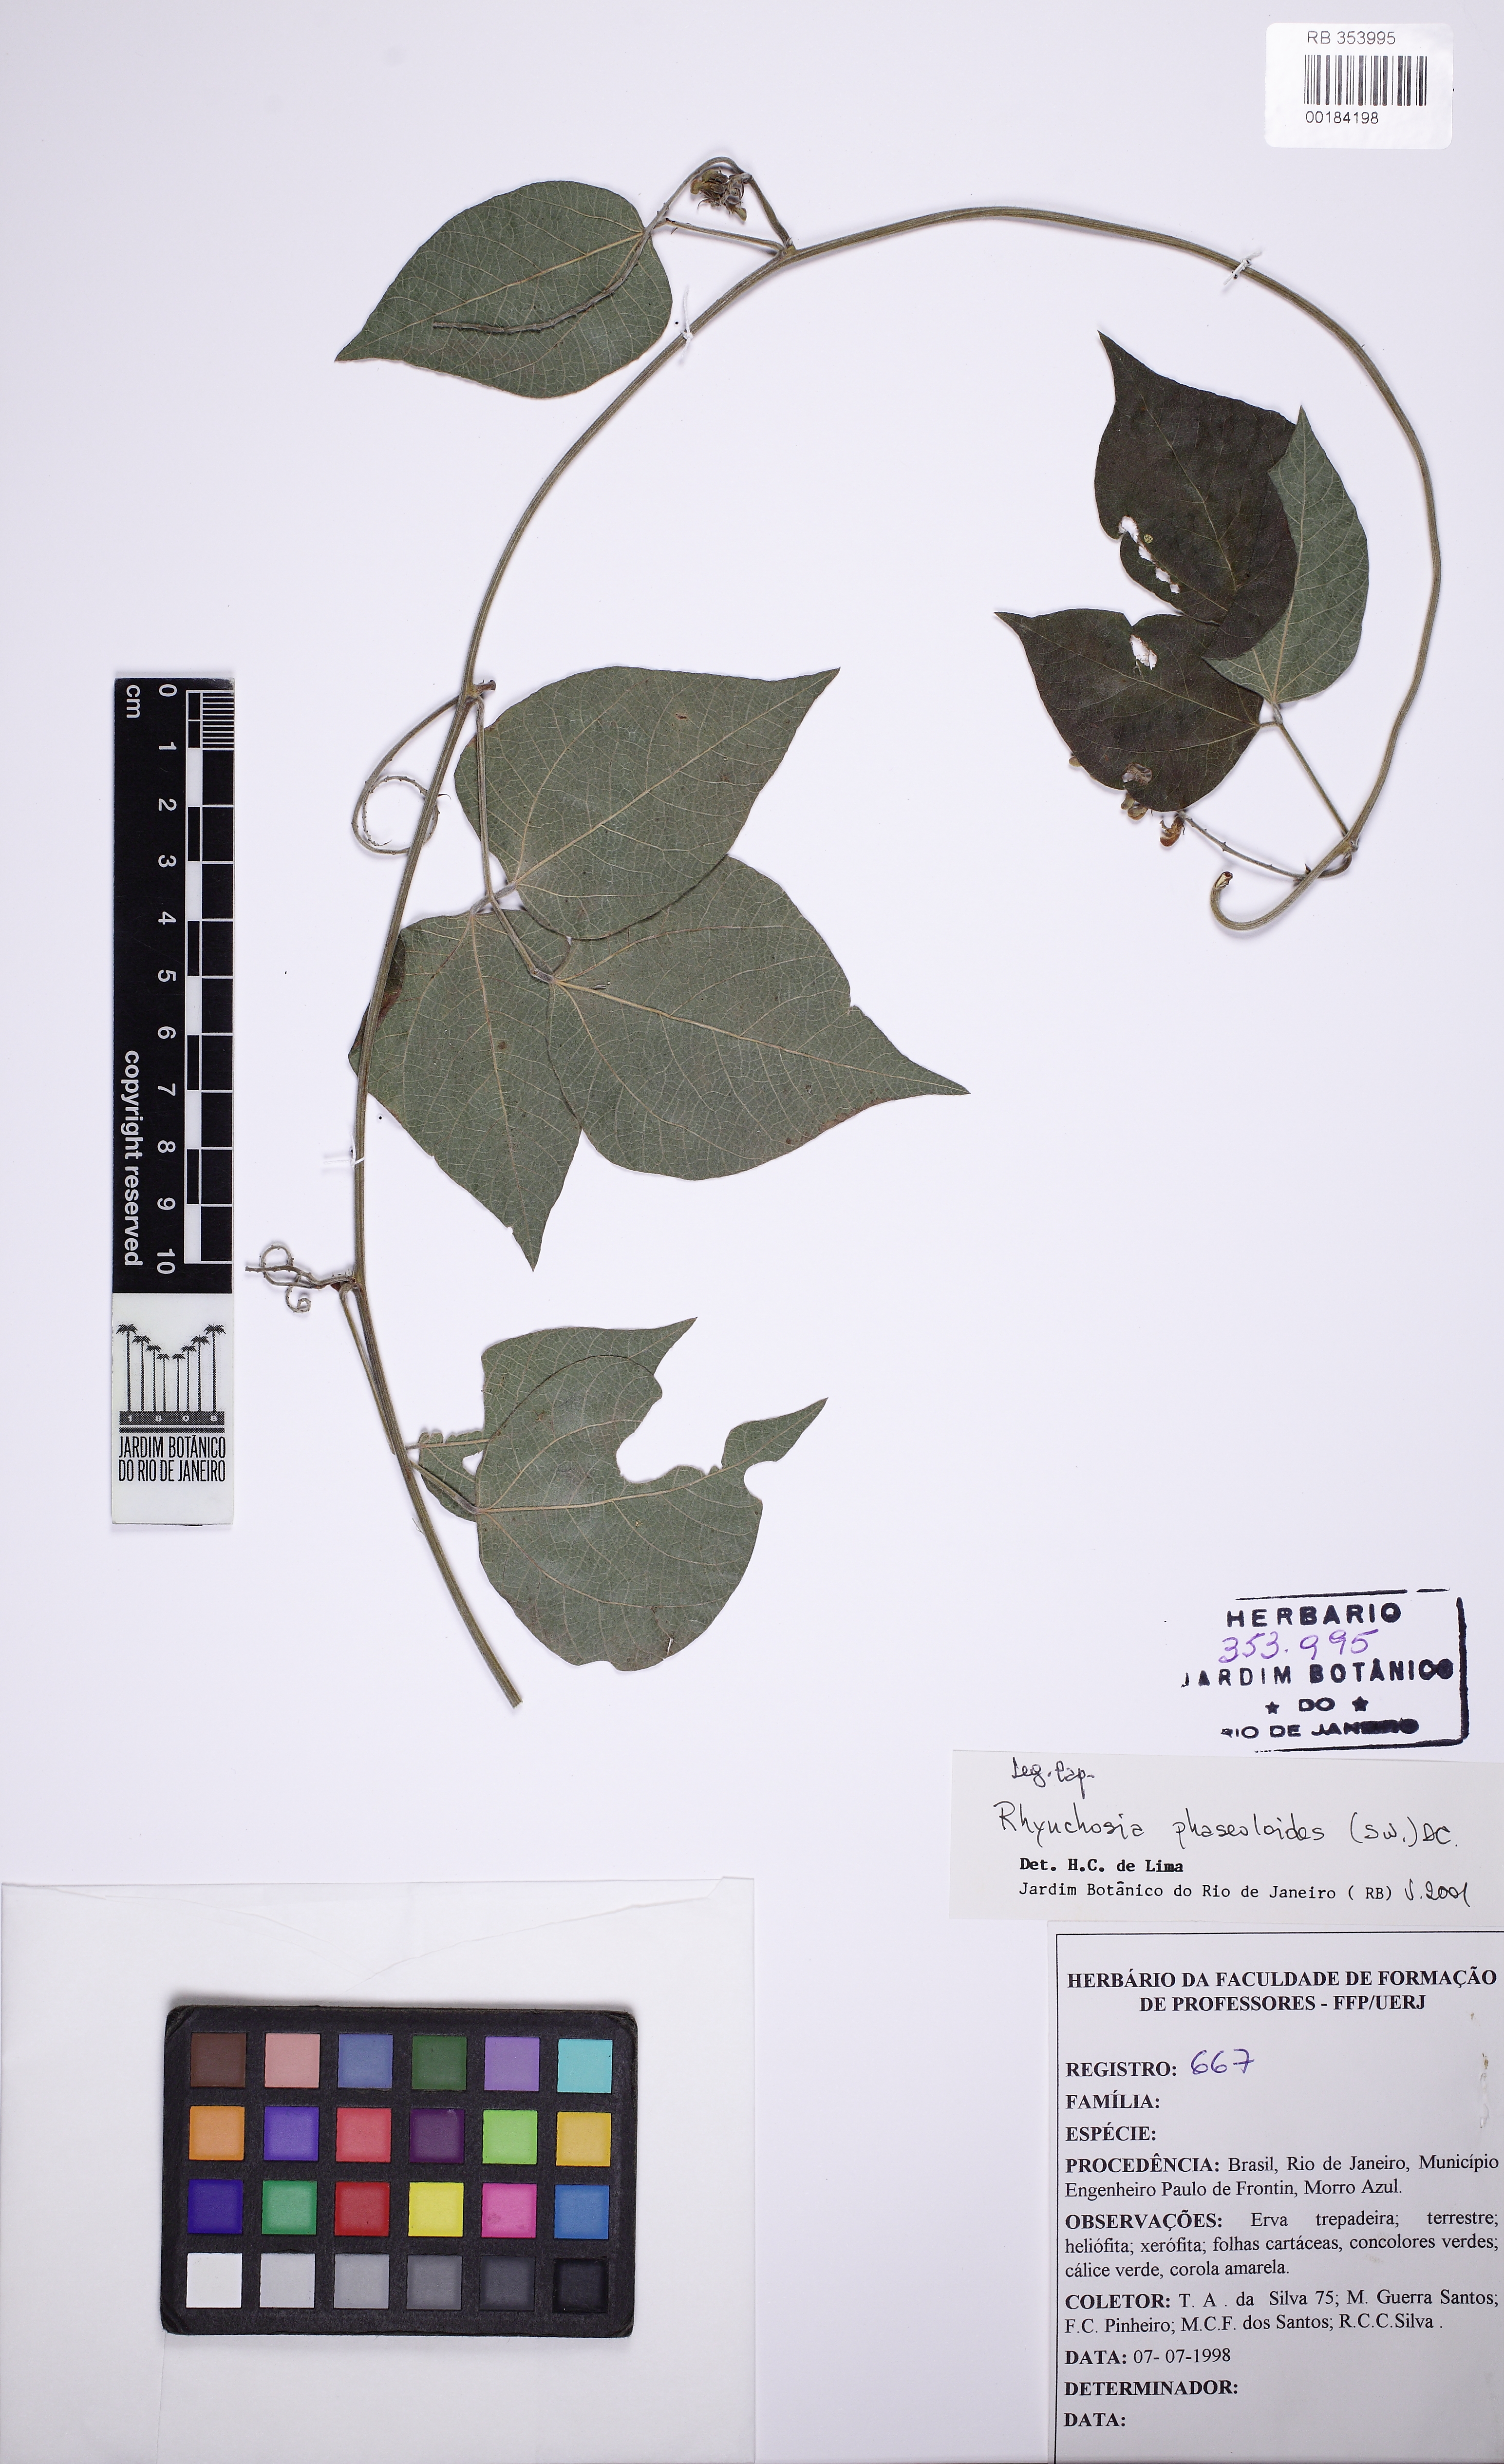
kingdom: Plantae
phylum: Tracheophyta
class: Magnoliopsida
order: Fabales
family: Fabaceae
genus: Rhynchosia
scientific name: Rhynchosia phaseoloides
